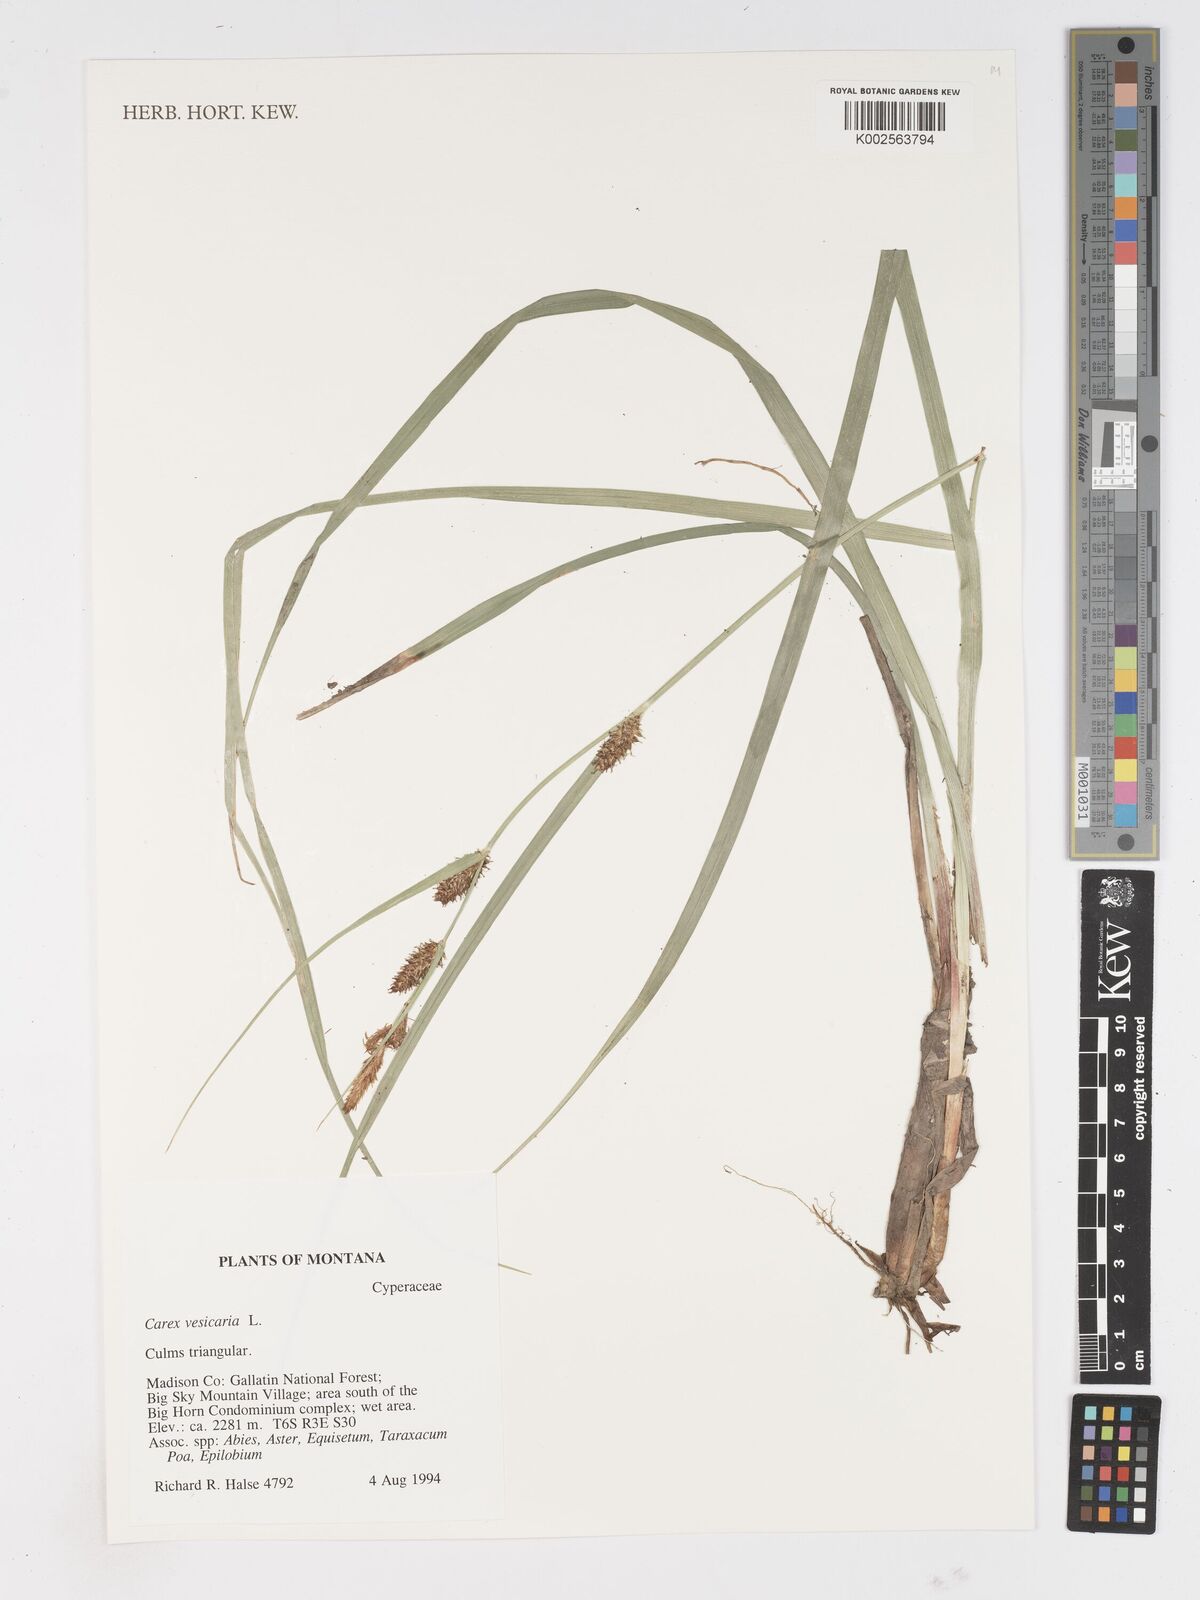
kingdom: Plantae
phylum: Tracheophyta
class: Liliopsida
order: Poales
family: Cyperaceae
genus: Carex
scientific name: Carex vesicaria
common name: Bladder-sedge
